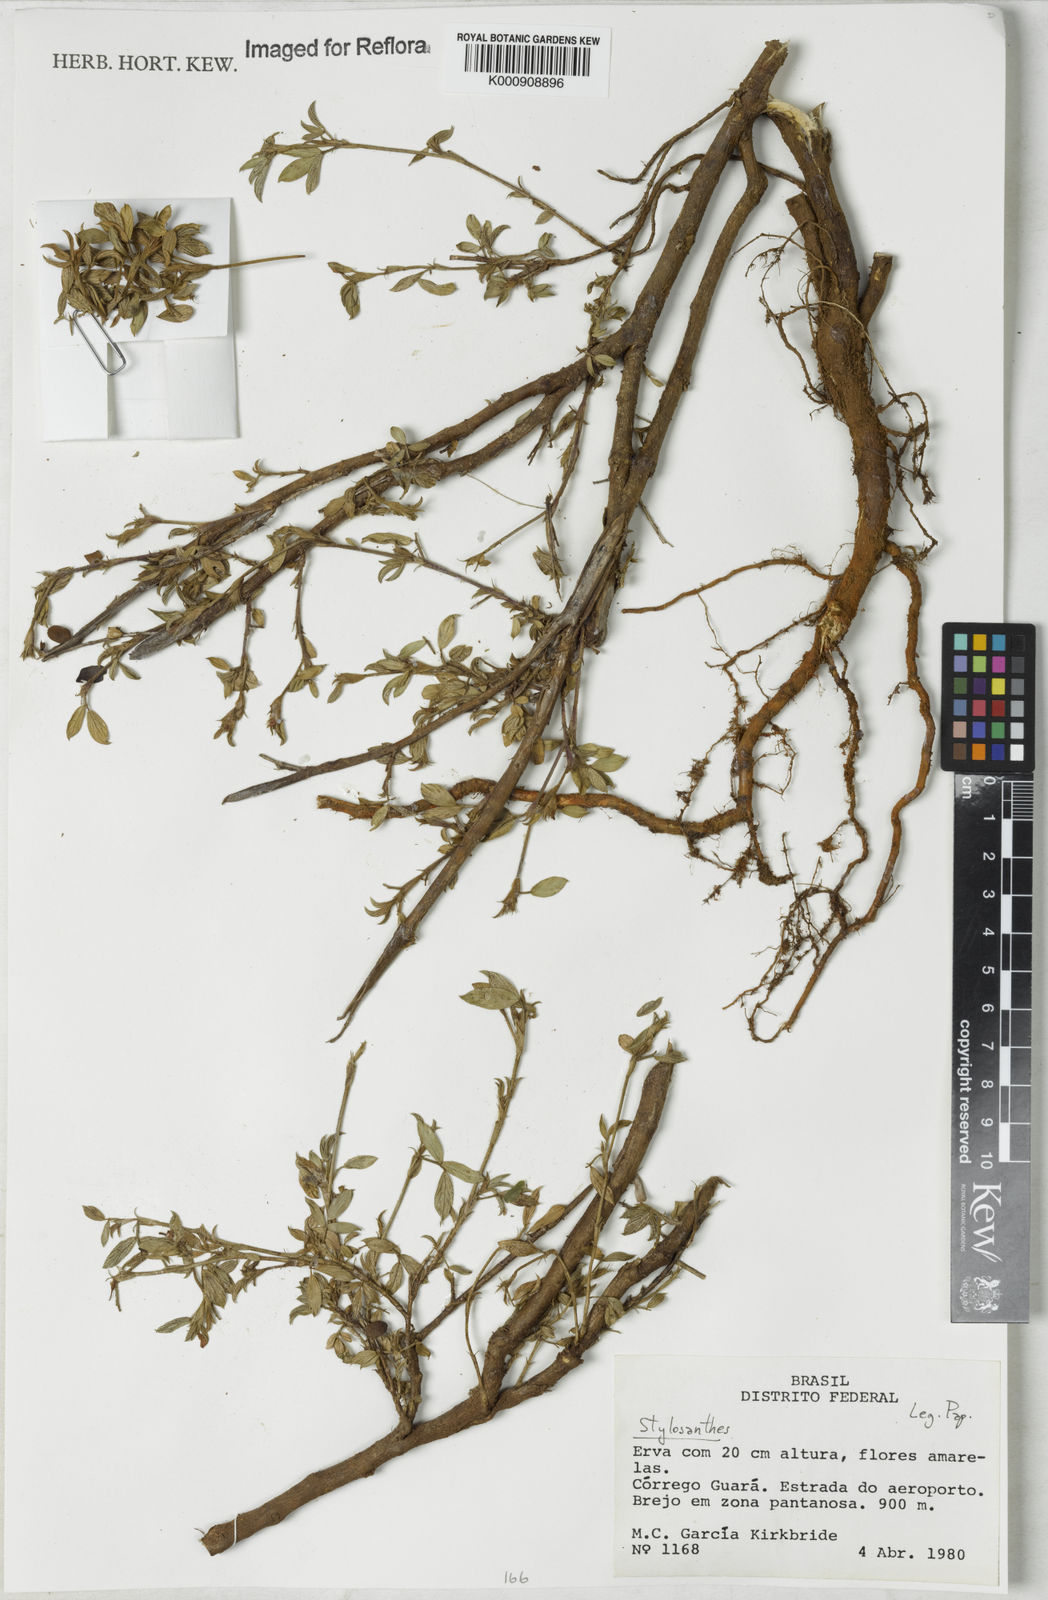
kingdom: Plantae
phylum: Tracheophyta
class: Magnoliopsida
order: Fabales
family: Fabaceae
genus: Stylosanthes
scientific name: Stylosanthes
